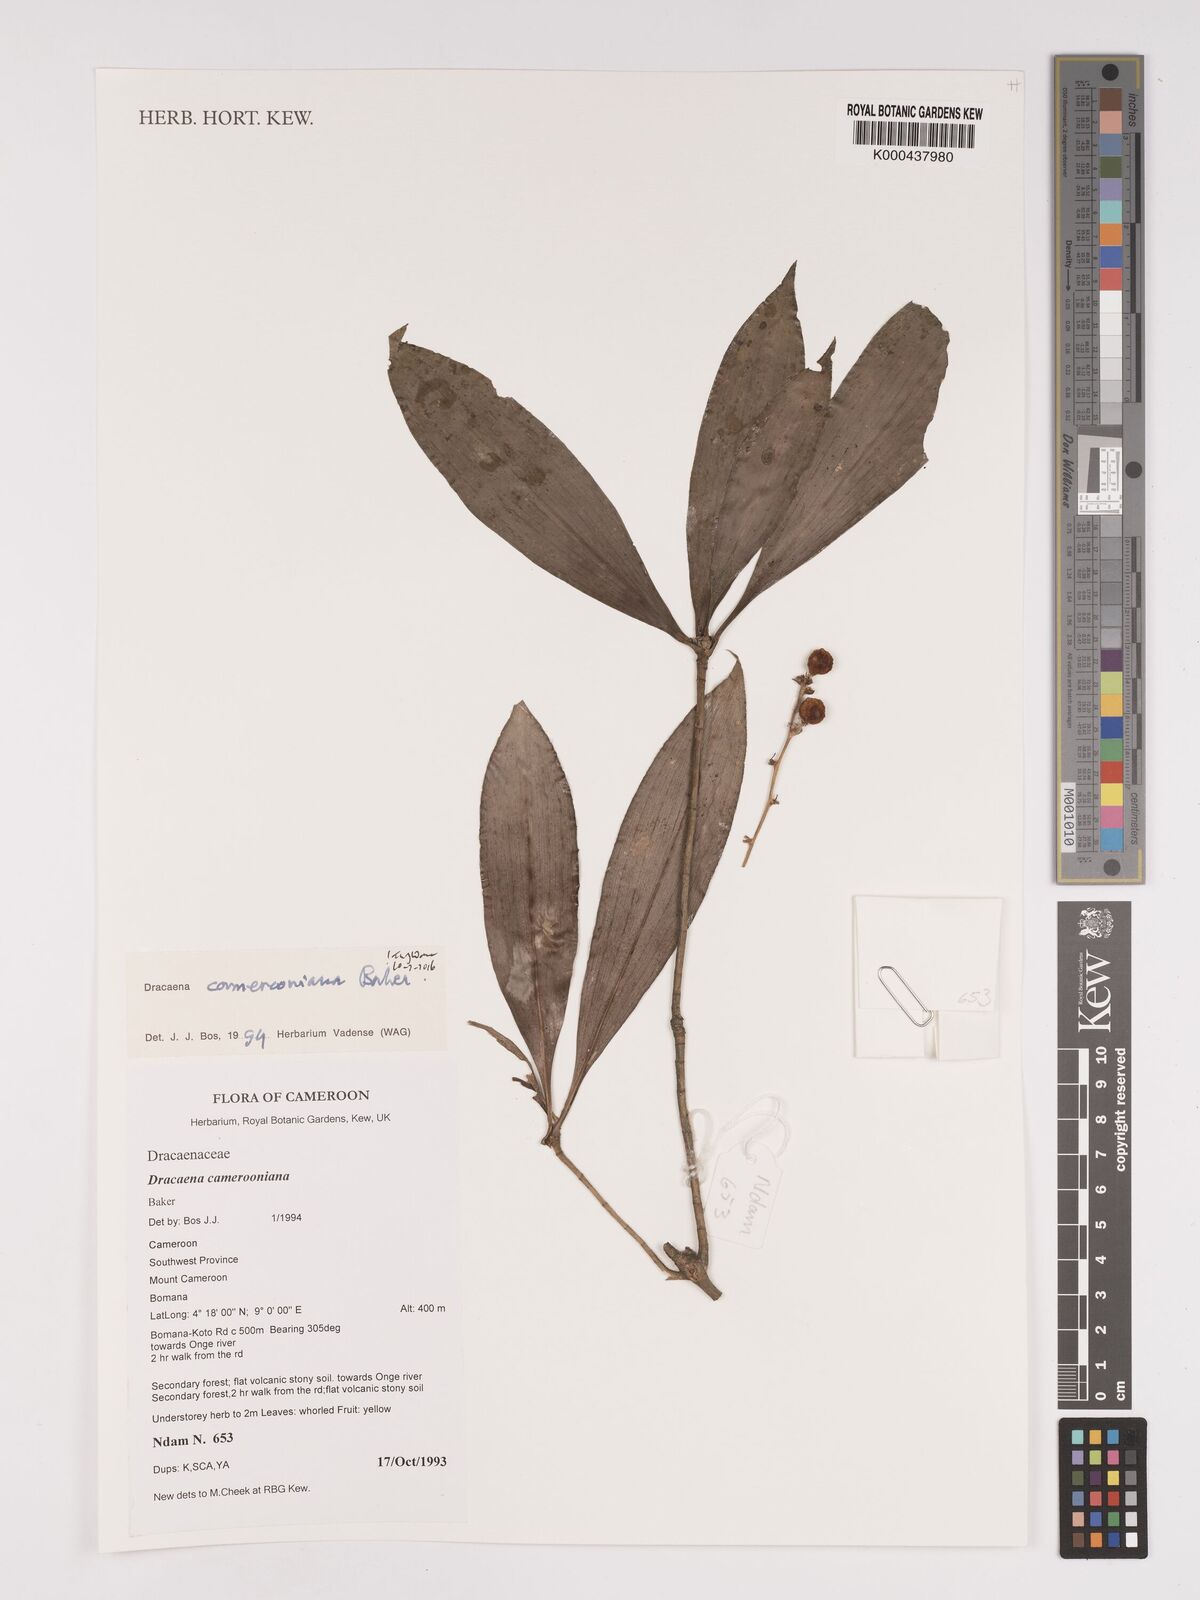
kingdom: Plantae
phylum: Tracheophyta
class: Liliopsida
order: Asparagales
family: Asparagaceae
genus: Dracaena
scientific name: Dracaena camerooniana
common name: Dragon tree
